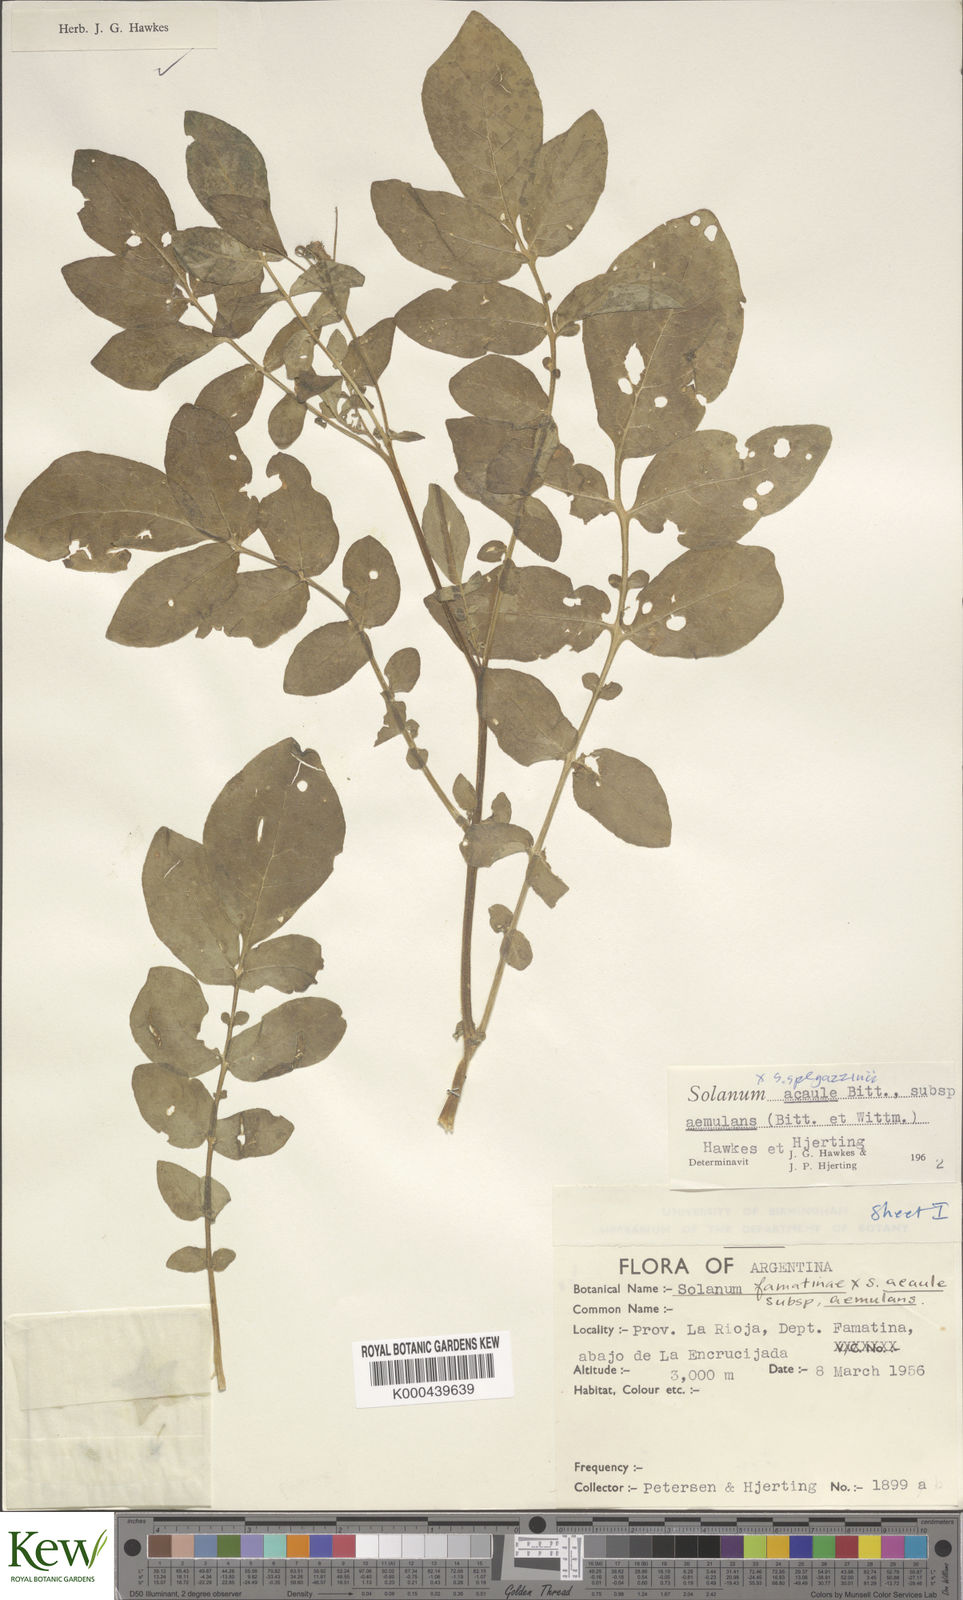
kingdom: Plantae
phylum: Tracheophyta
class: Magnoliopsida
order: Solanales
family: Solanaceae
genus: Solanum
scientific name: Solanum aemulans
